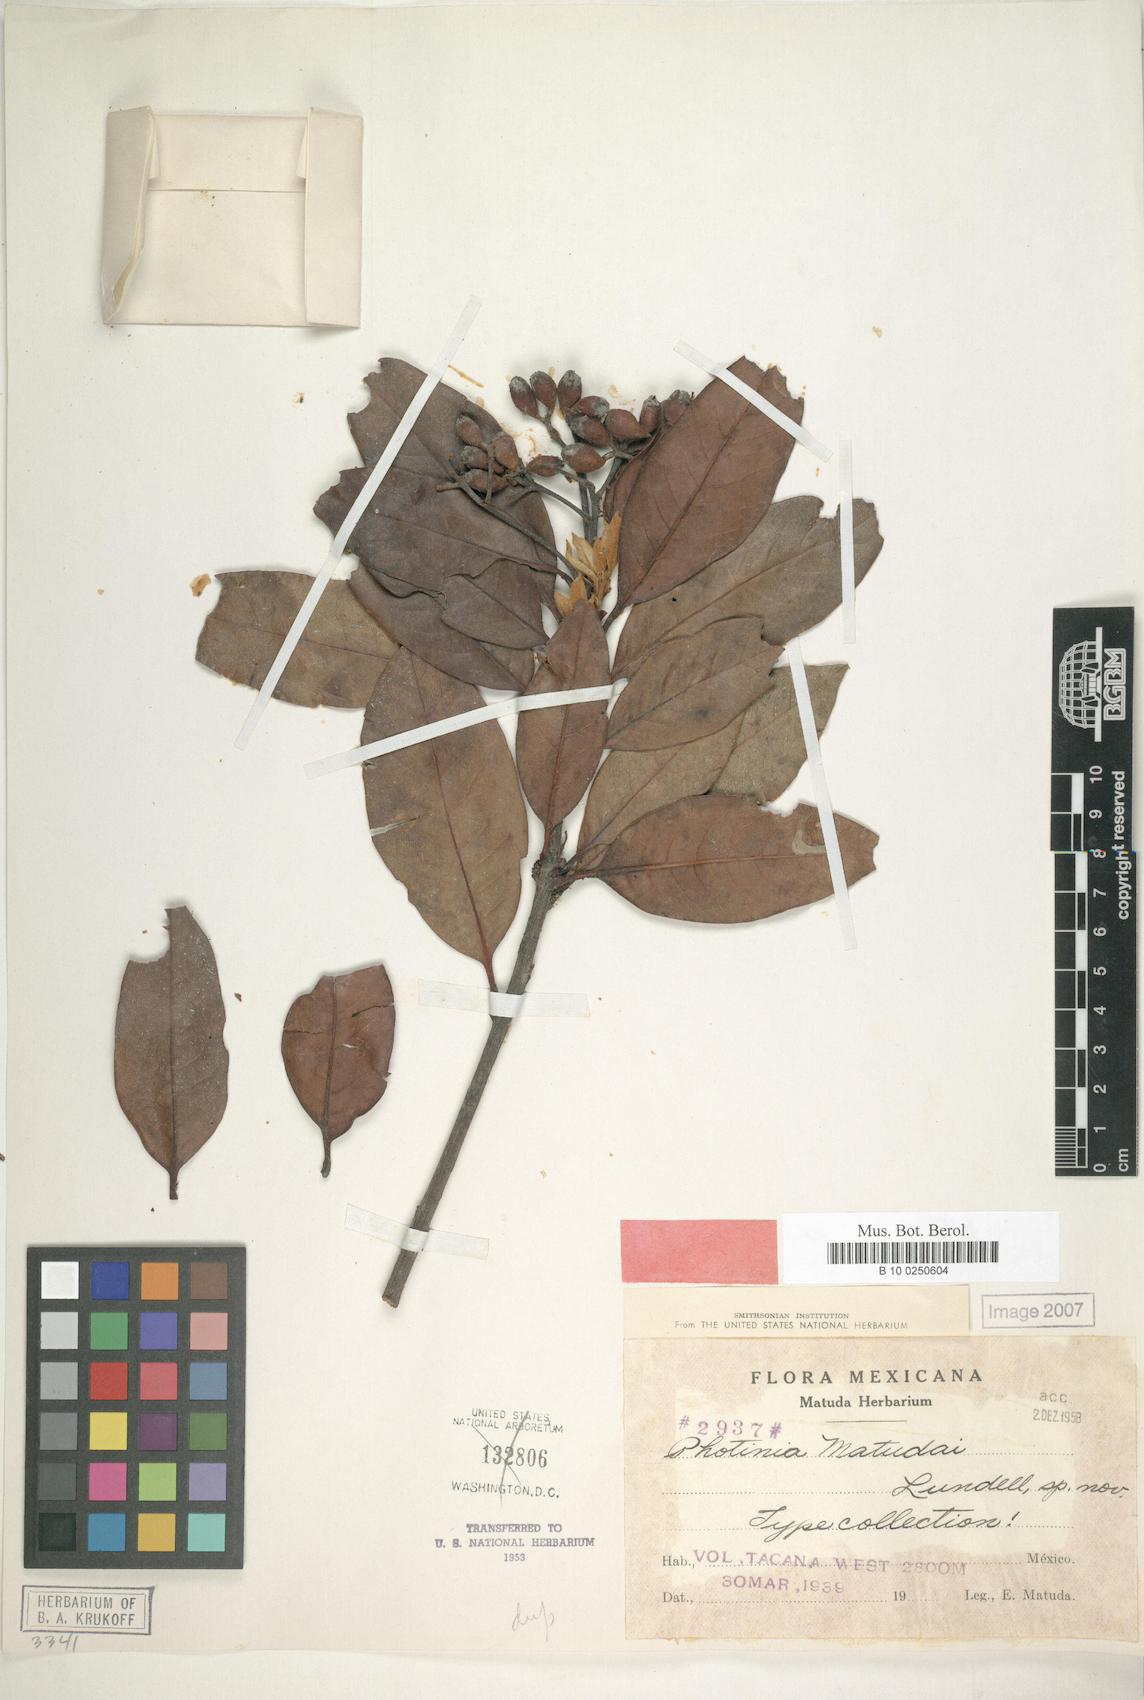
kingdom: Plantae
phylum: Tracheophyta
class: Magnoliopsida
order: Rosales
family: Rosaceae
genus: Phippsiomeles
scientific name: Phippsiomeles matudae
